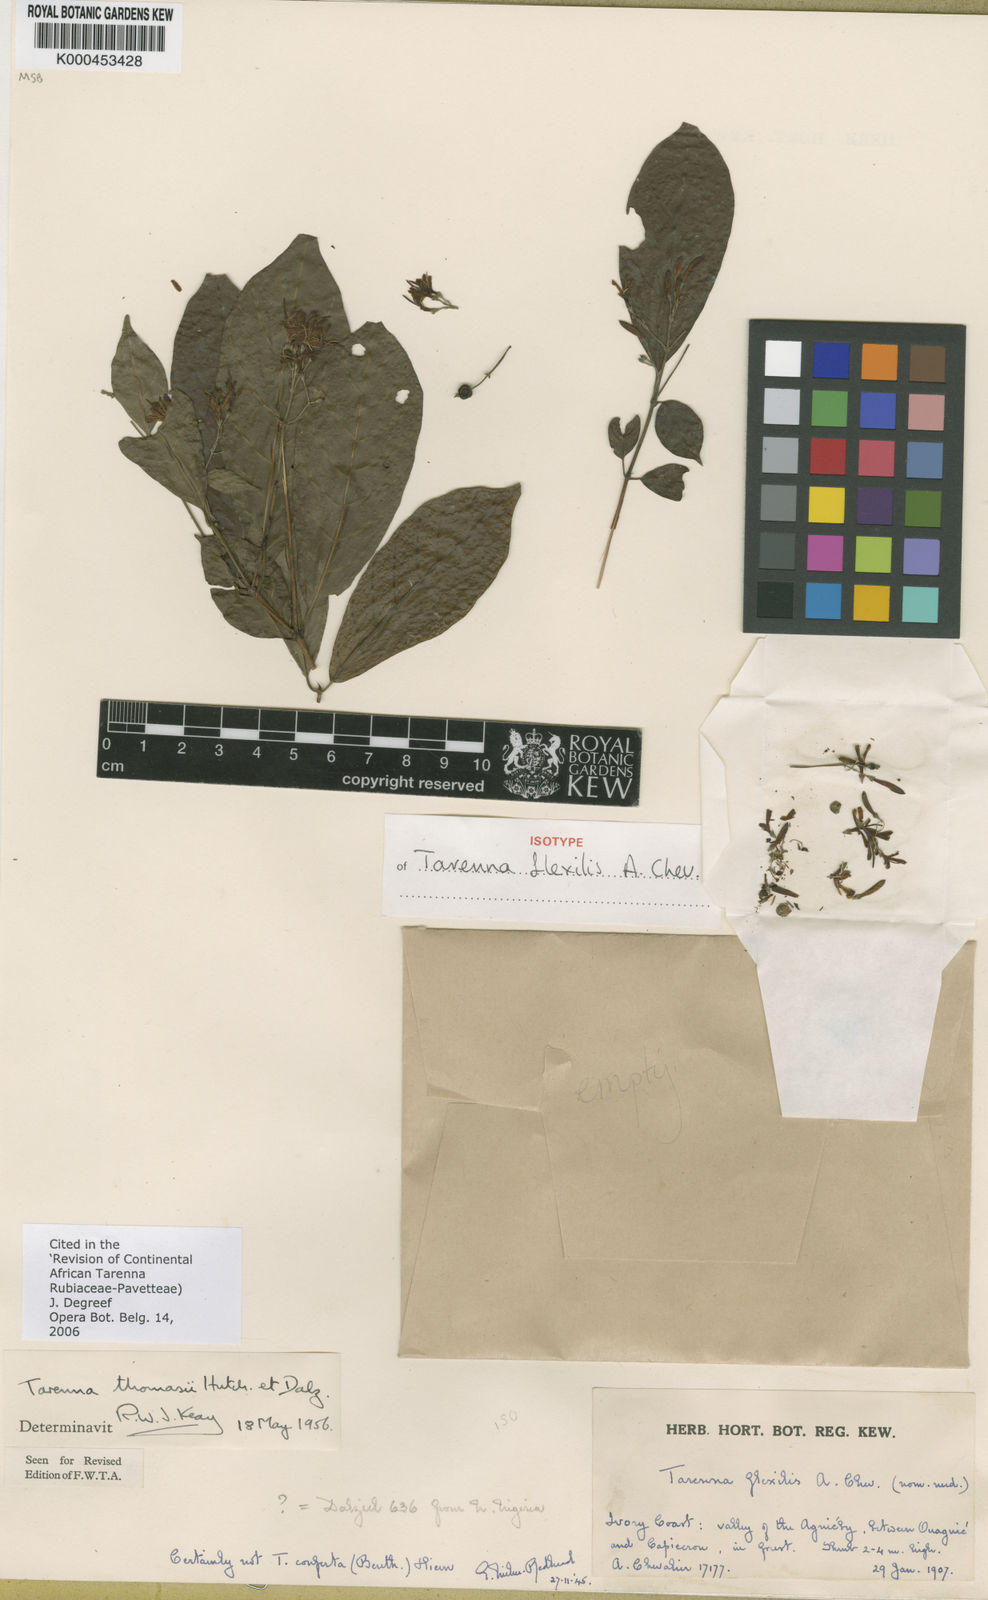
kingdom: Plantae
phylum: Tracheophyta
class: Magnoliopsida
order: Gentianales
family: Rubiaceae
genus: Tarenna
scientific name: Tarenna thomasii
